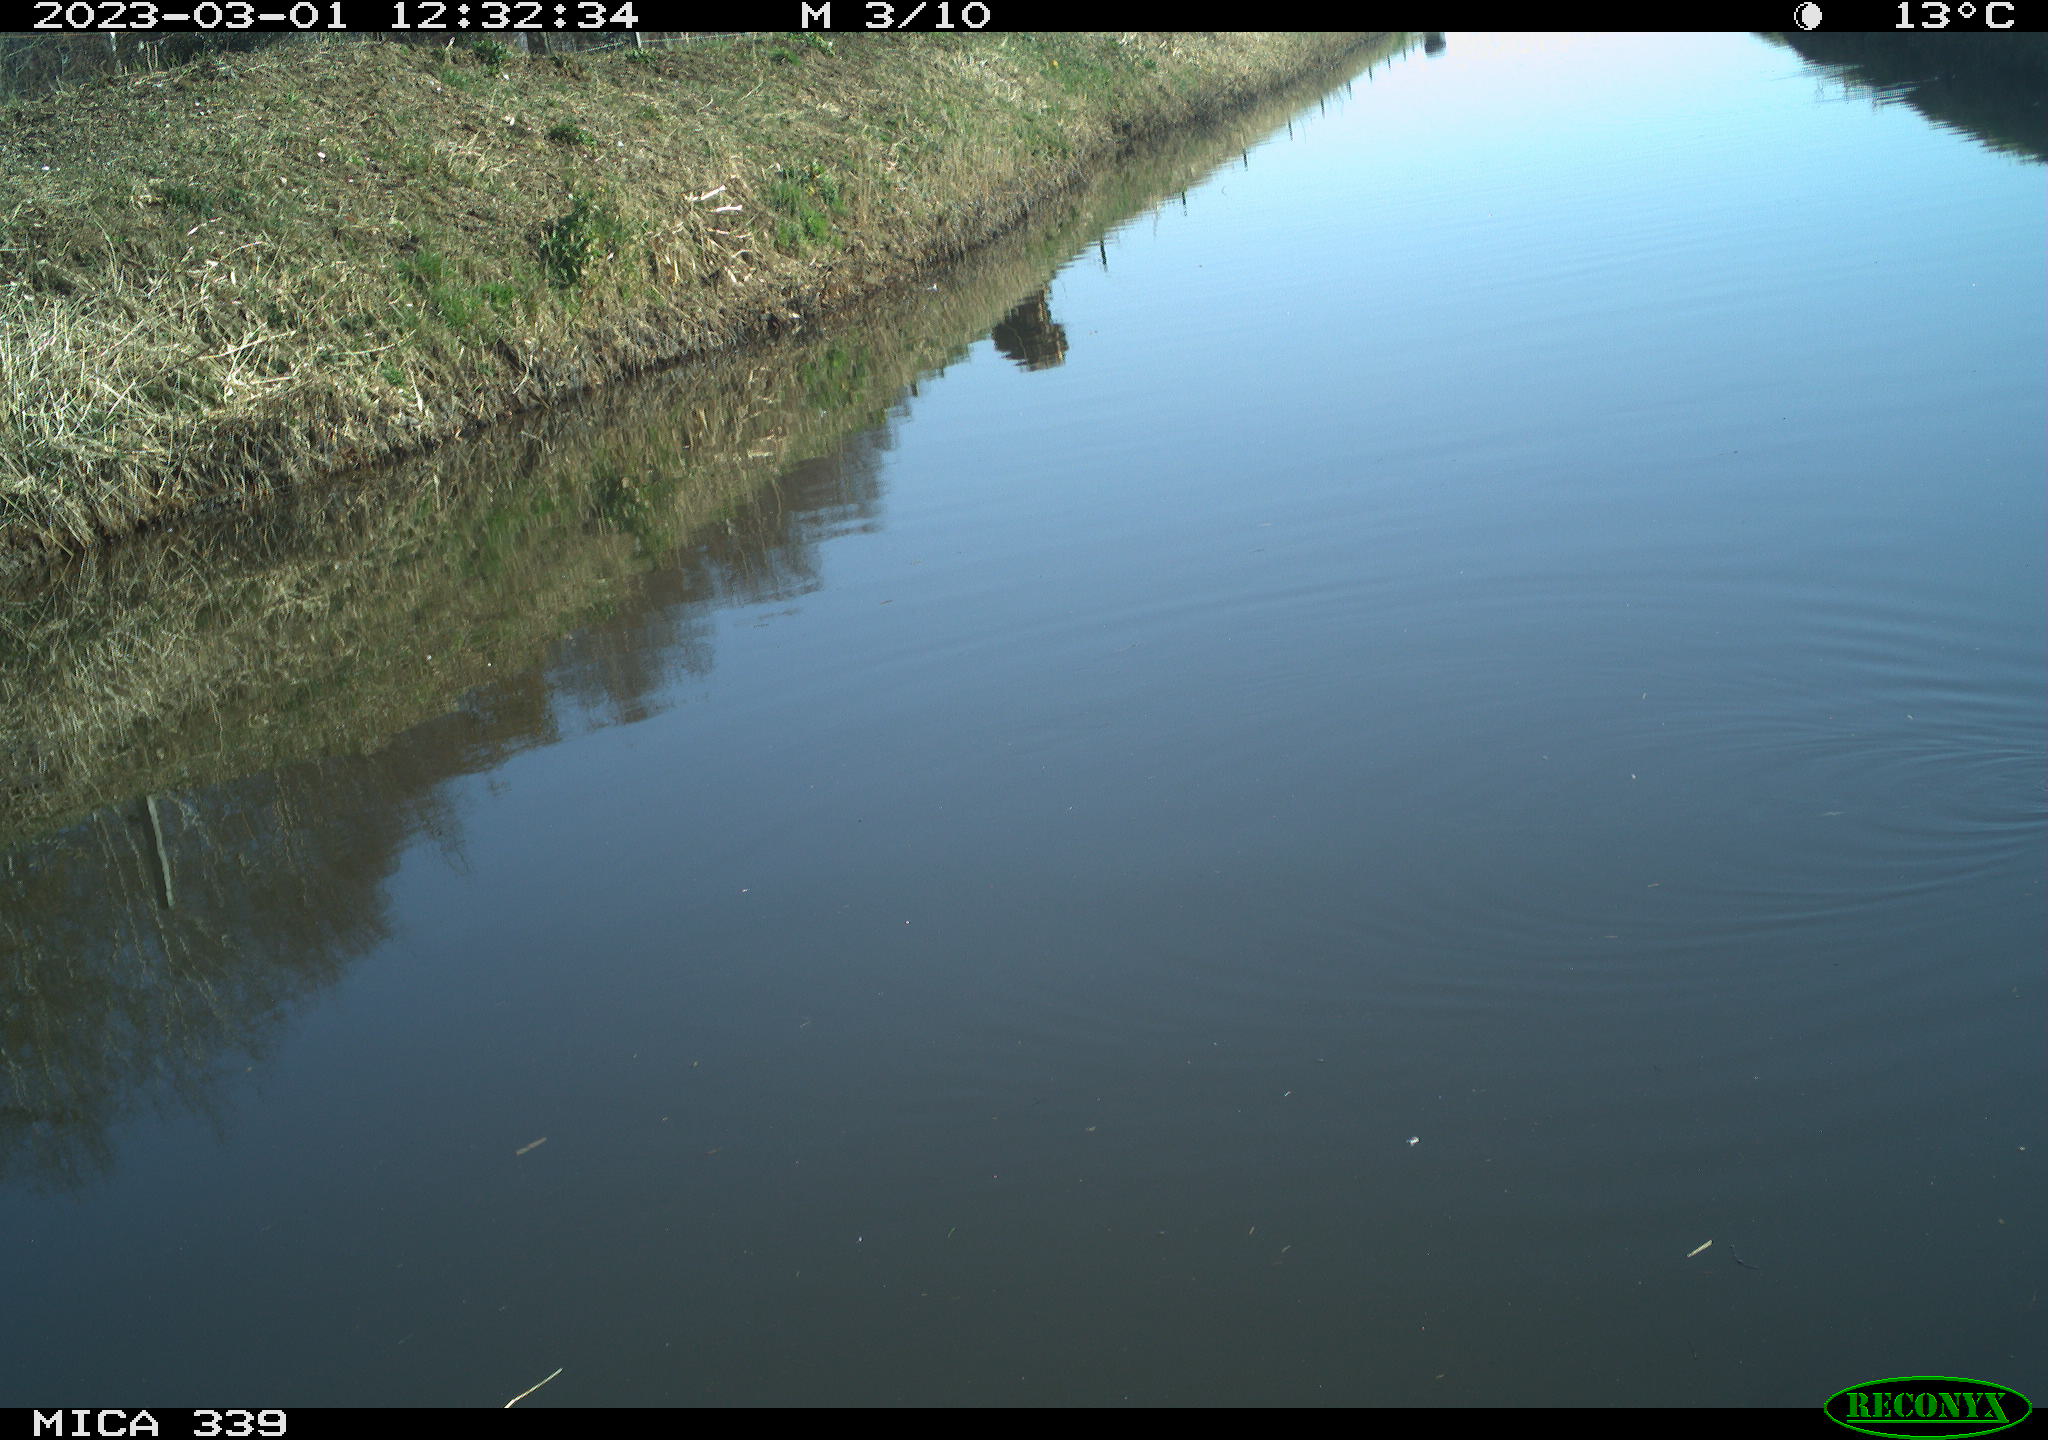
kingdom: Animalia
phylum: Chordata
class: Aves
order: Gruiformes
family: Rallidae
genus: Gallinula
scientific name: Gallinula chloropus
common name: Common moorhen
